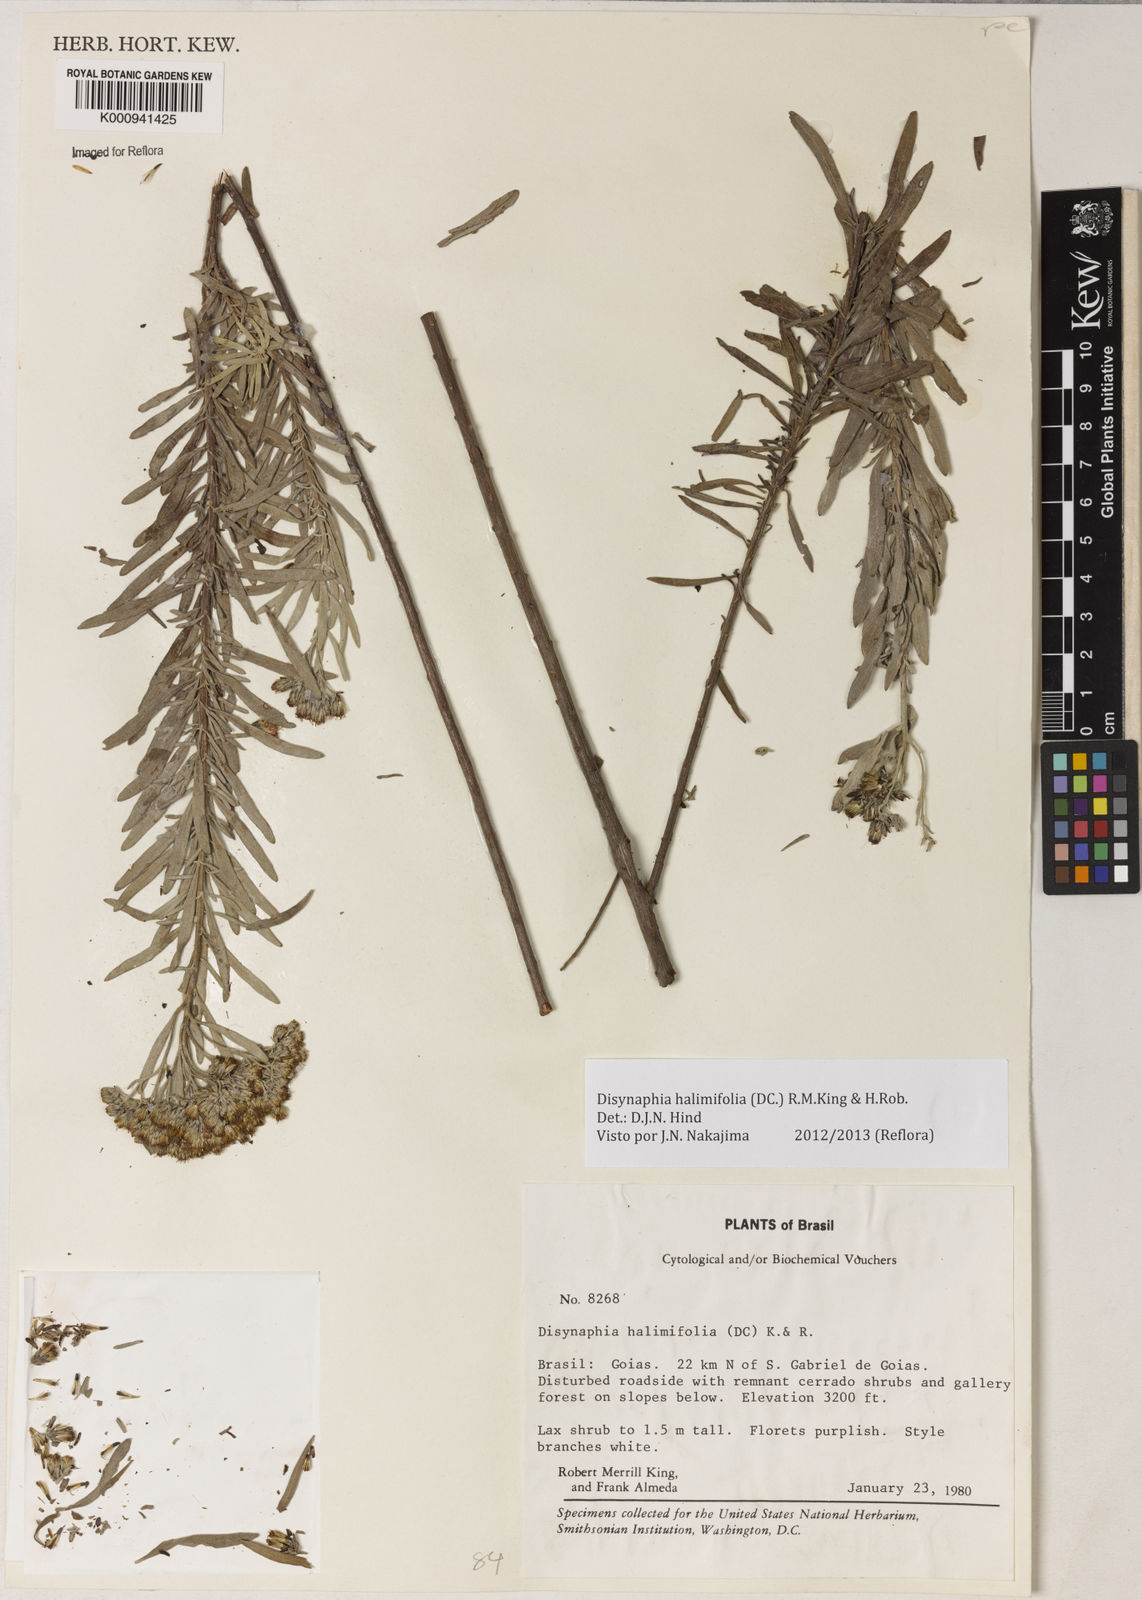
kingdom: Plantae
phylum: Tracheophyta
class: Magnoliopsida
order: Asterales
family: Asteraceae
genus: Disynaphia
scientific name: Disynaphia halimifolia
